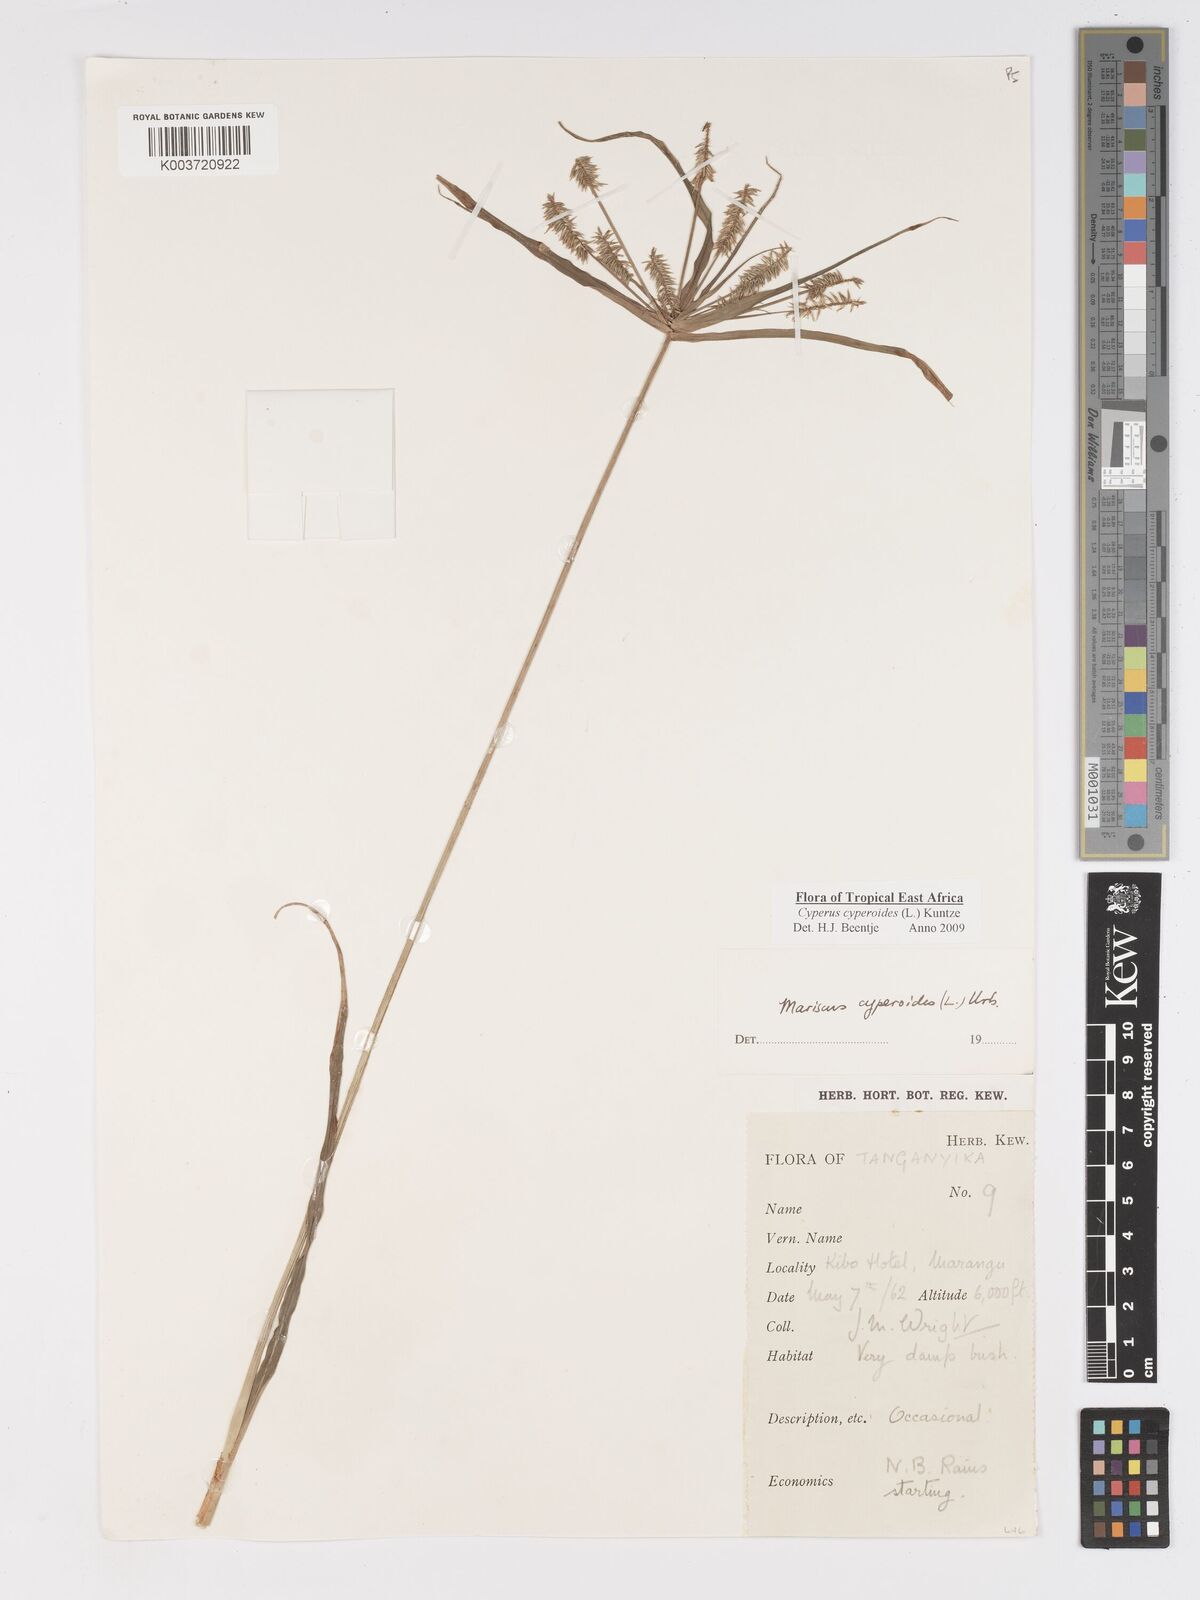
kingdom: Plantae
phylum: Tracheophyta
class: Liliopsida
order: Poales
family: Cyperaceae
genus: Cyperus
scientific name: Cyperus cyperoides
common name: Pacific island flat sedge
